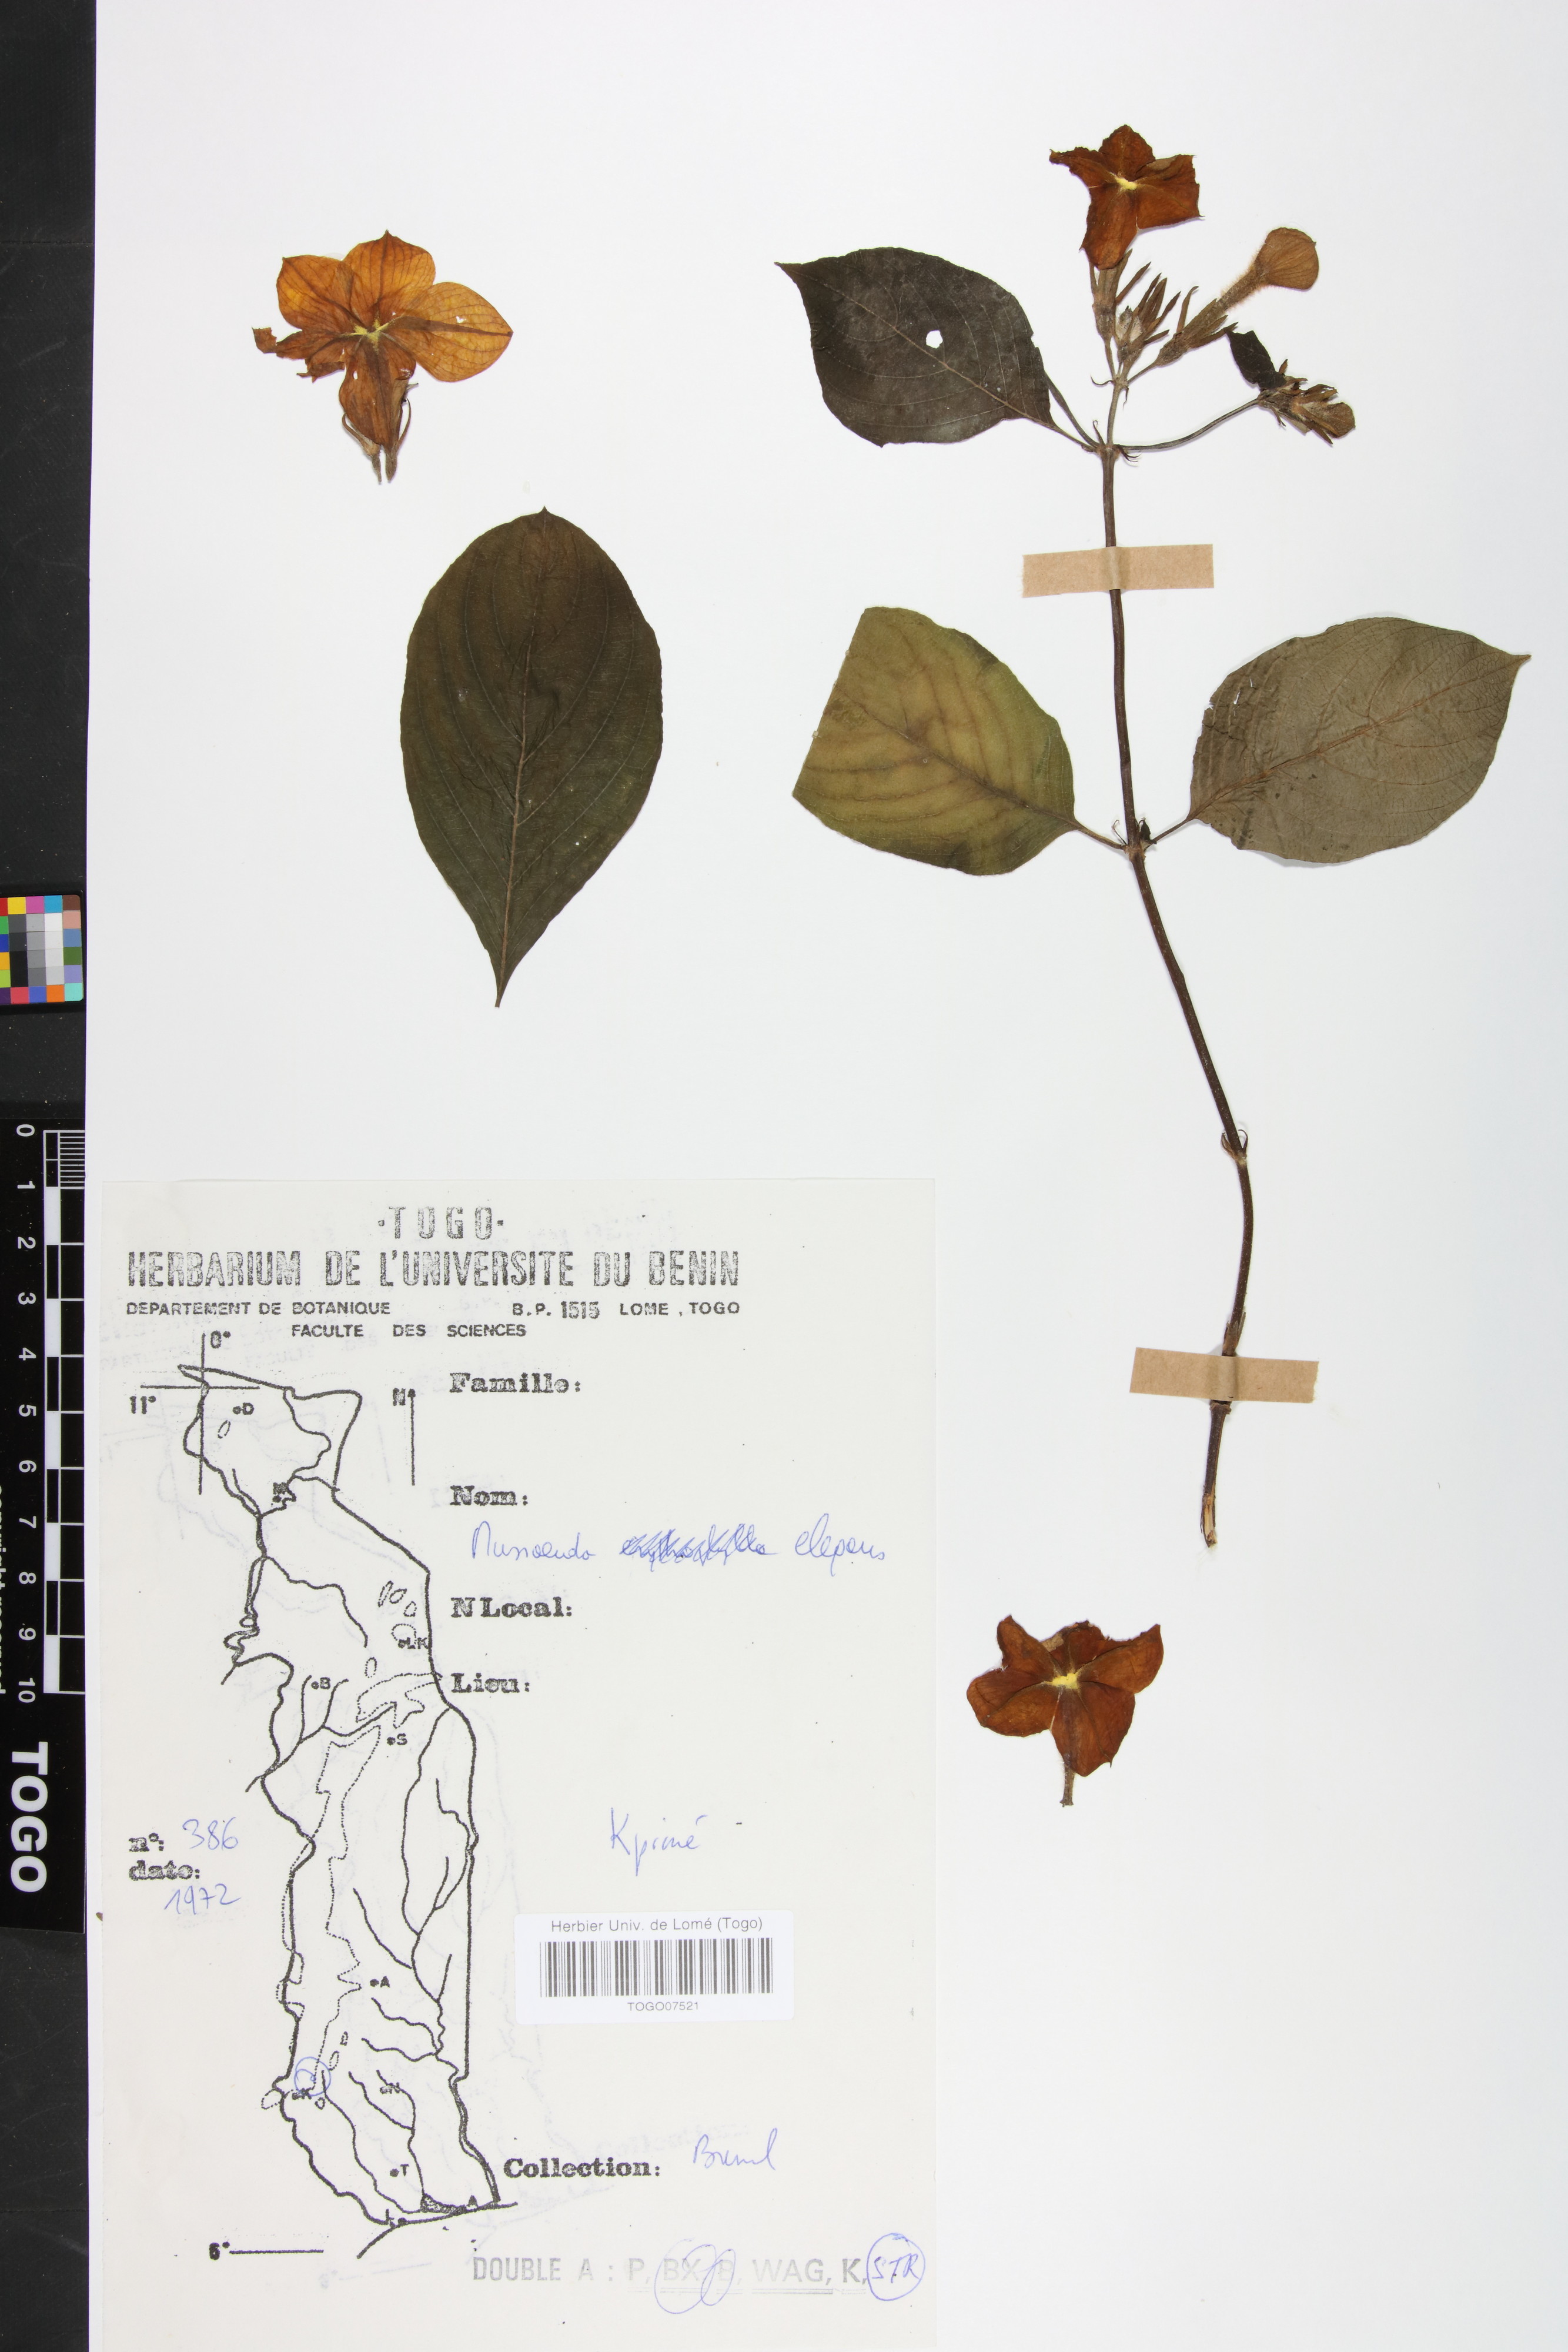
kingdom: Plantae
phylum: Tracheophyta
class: Magnoliopsida
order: Gentianales
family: Rubiaceae
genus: Mussaenda
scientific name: Mussaenda elegans
